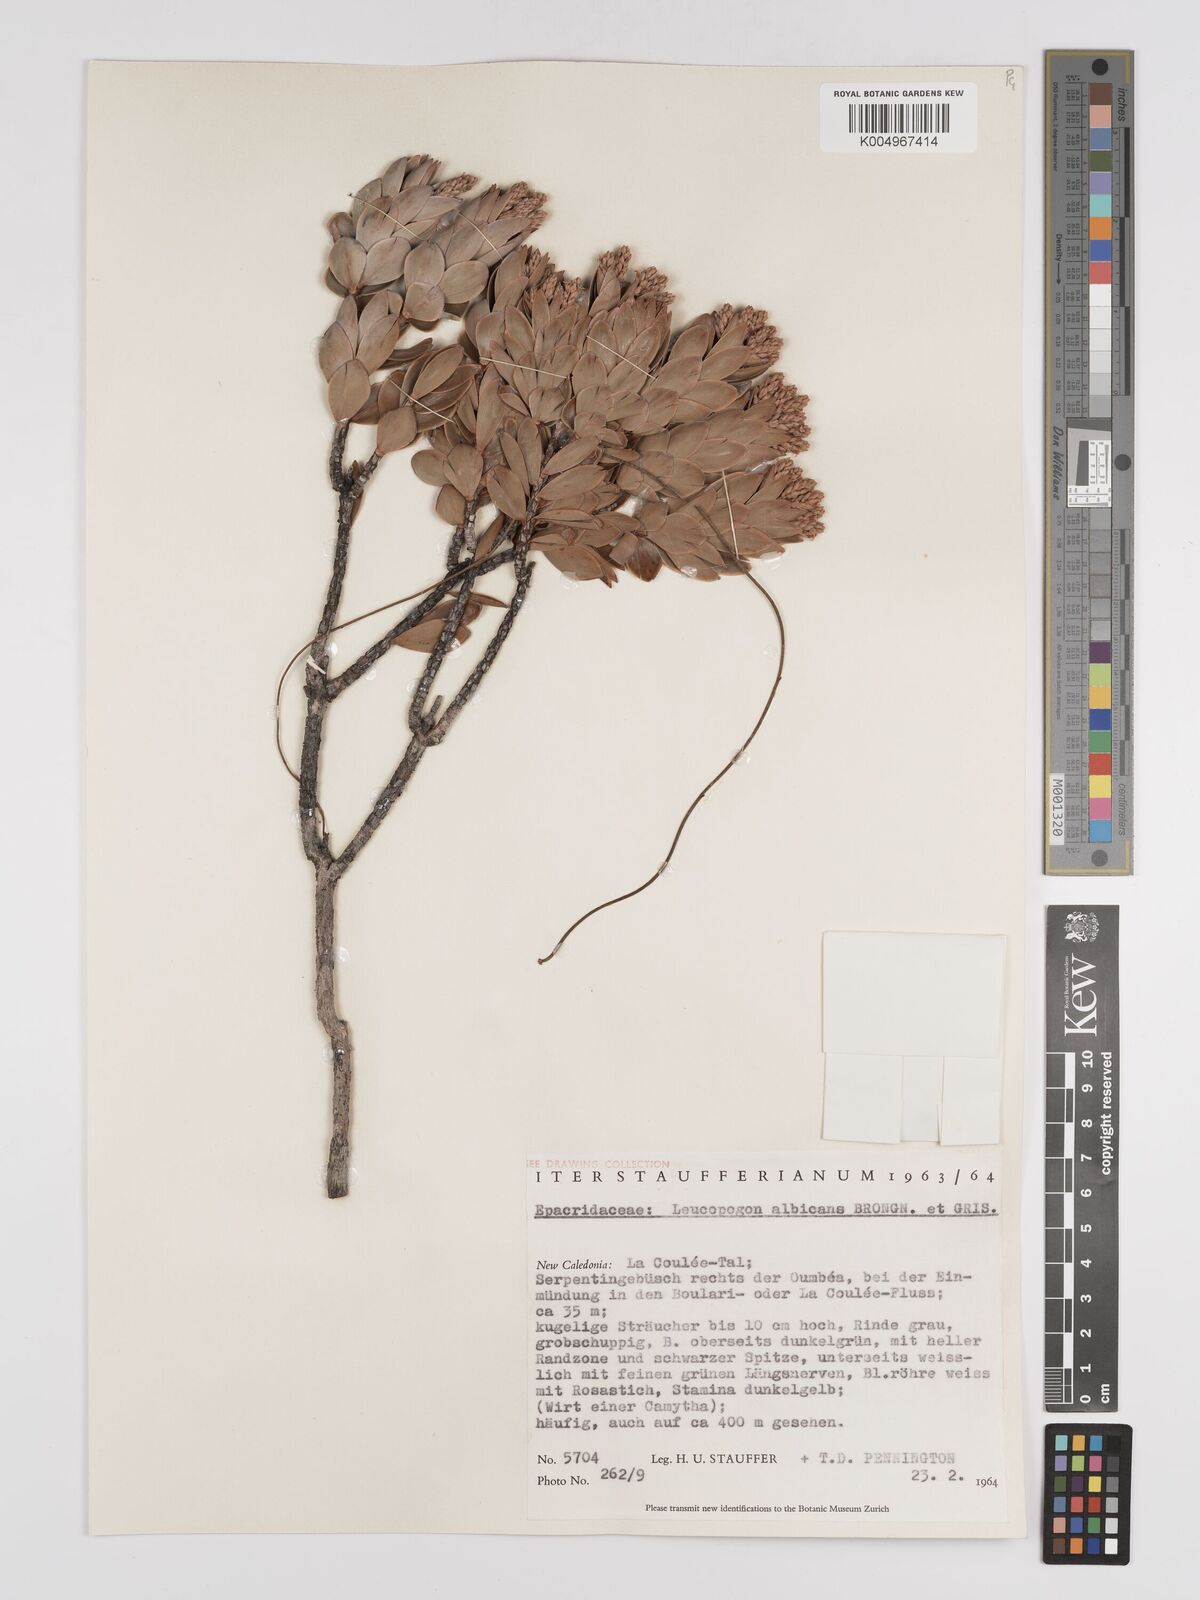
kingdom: Plantae
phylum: Tracheophyta
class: Magnoliopsida
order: Ericales
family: Ericaceae
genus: Cyathopsis
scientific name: Cyathopsis albicans
